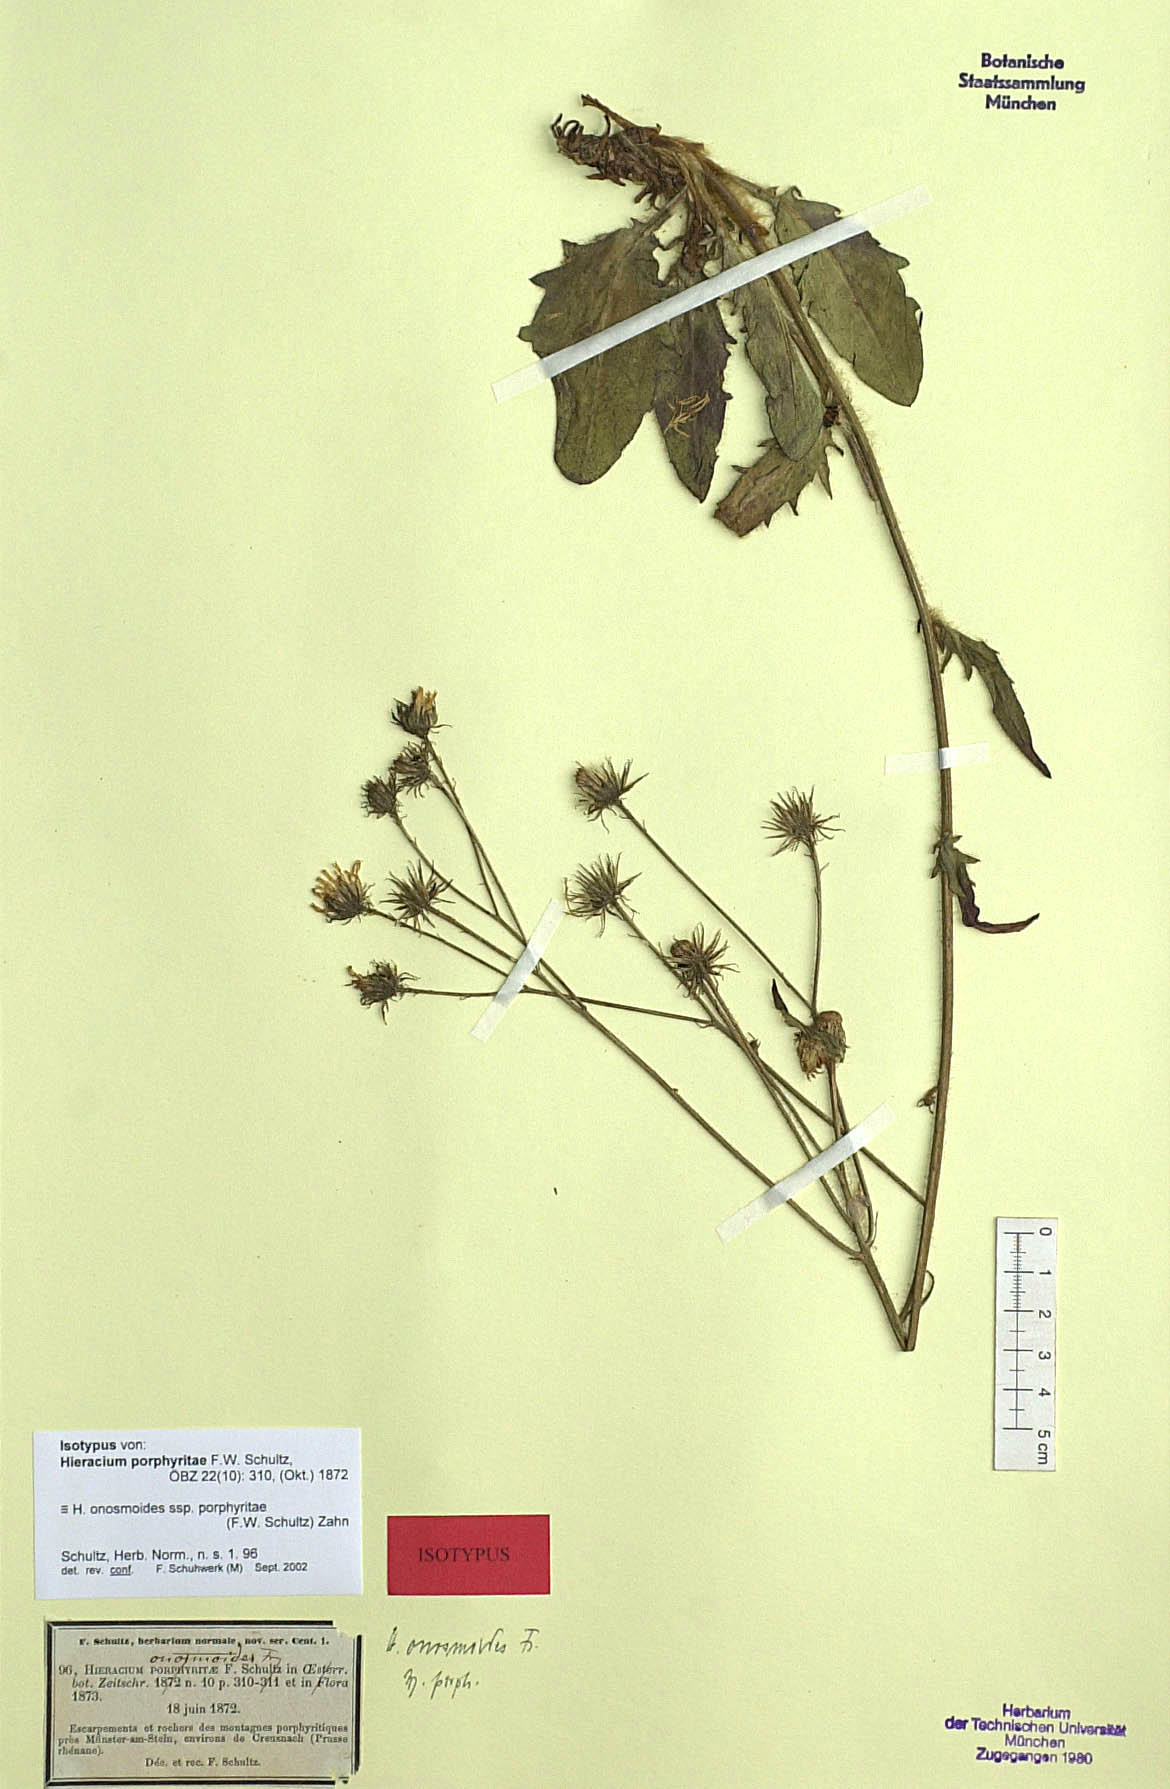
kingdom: Plantae
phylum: Tracheophyta
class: Magnoliopsida
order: Asterales
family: Asteraceae
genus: Hieracium
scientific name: Hieracium onosmoides
